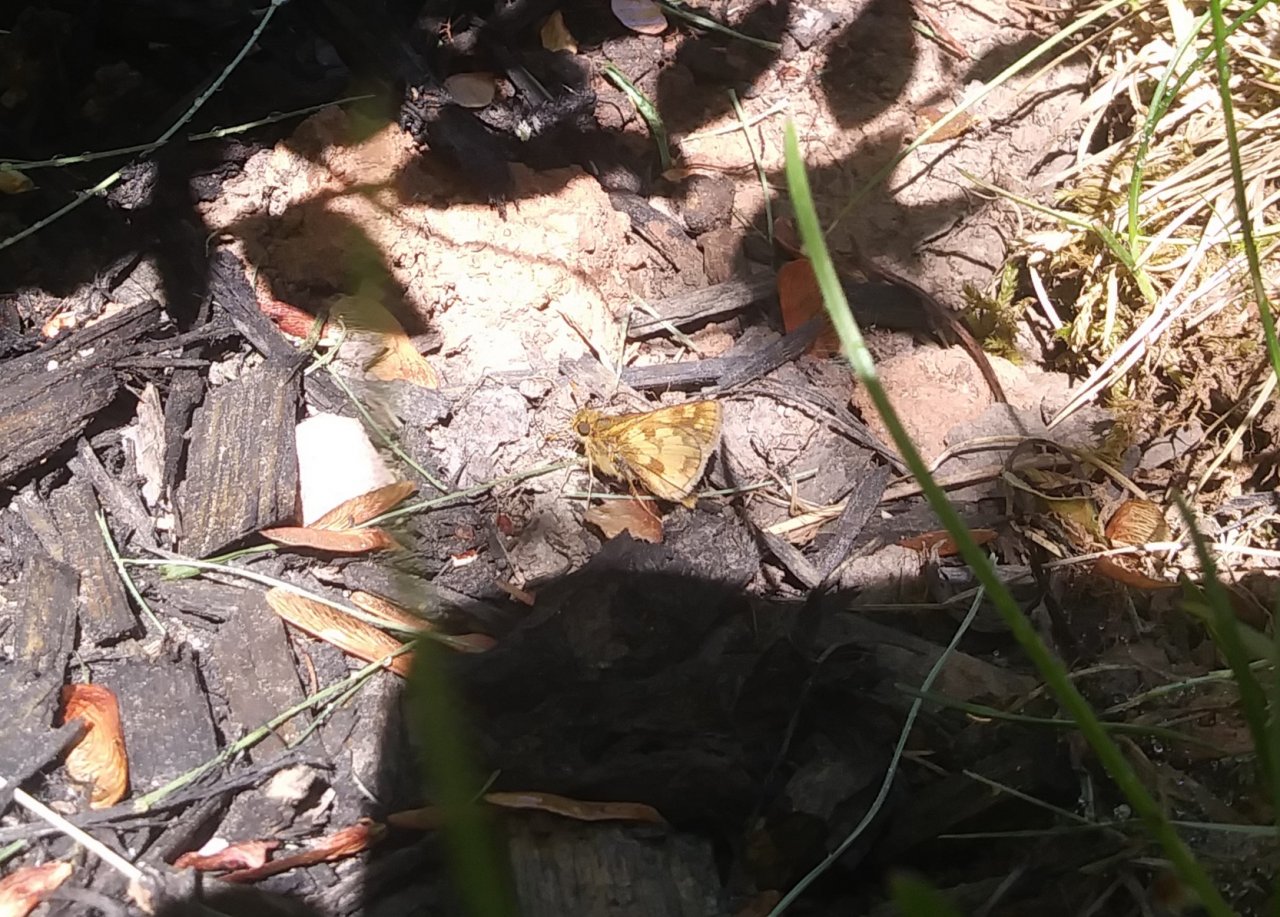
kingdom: Animalia
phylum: Arthropoda
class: Insecta
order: Lepidoptera
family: Hesperiidae
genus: Polites
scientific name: Polites coras
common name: Peck's Skipper
